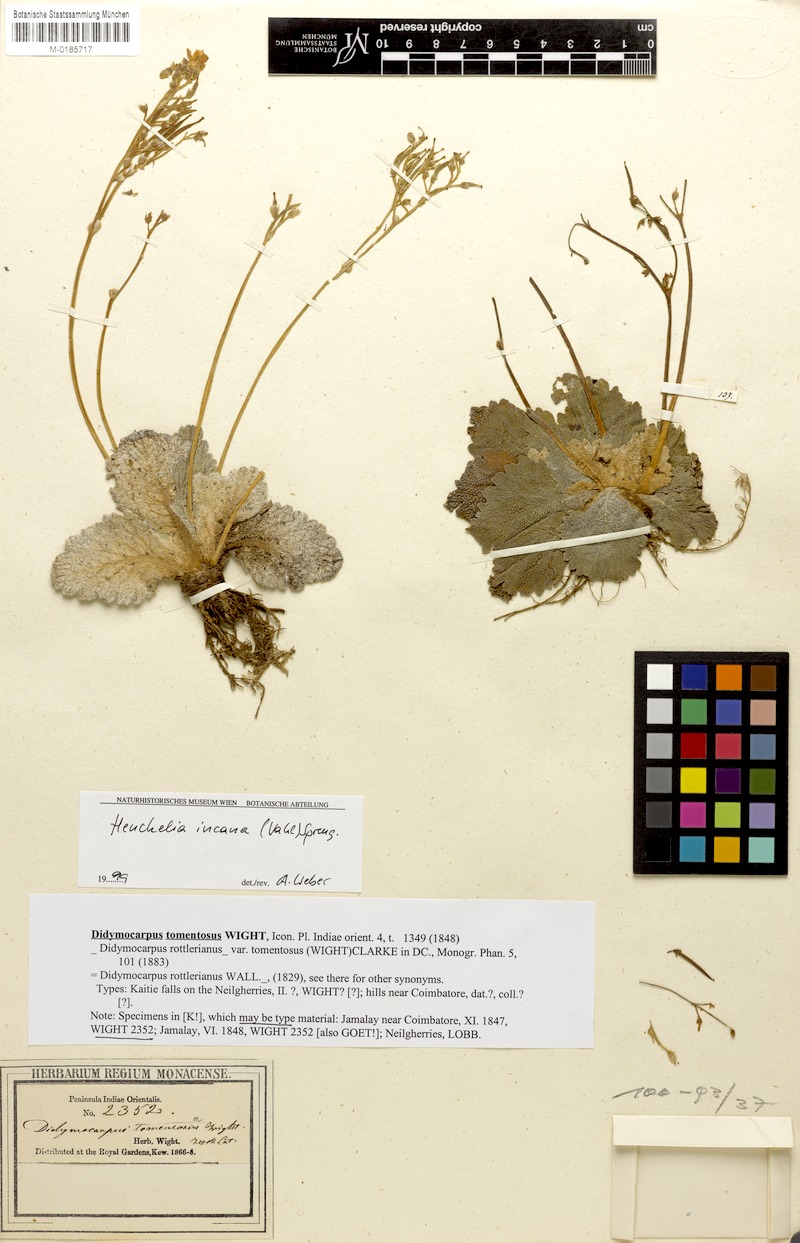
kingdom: Plantae
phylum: Tracheophyta
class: Magnoliopsida
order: Lamiales
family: Gesneriaceae
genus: Henckelia
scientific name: Henckelia incana
